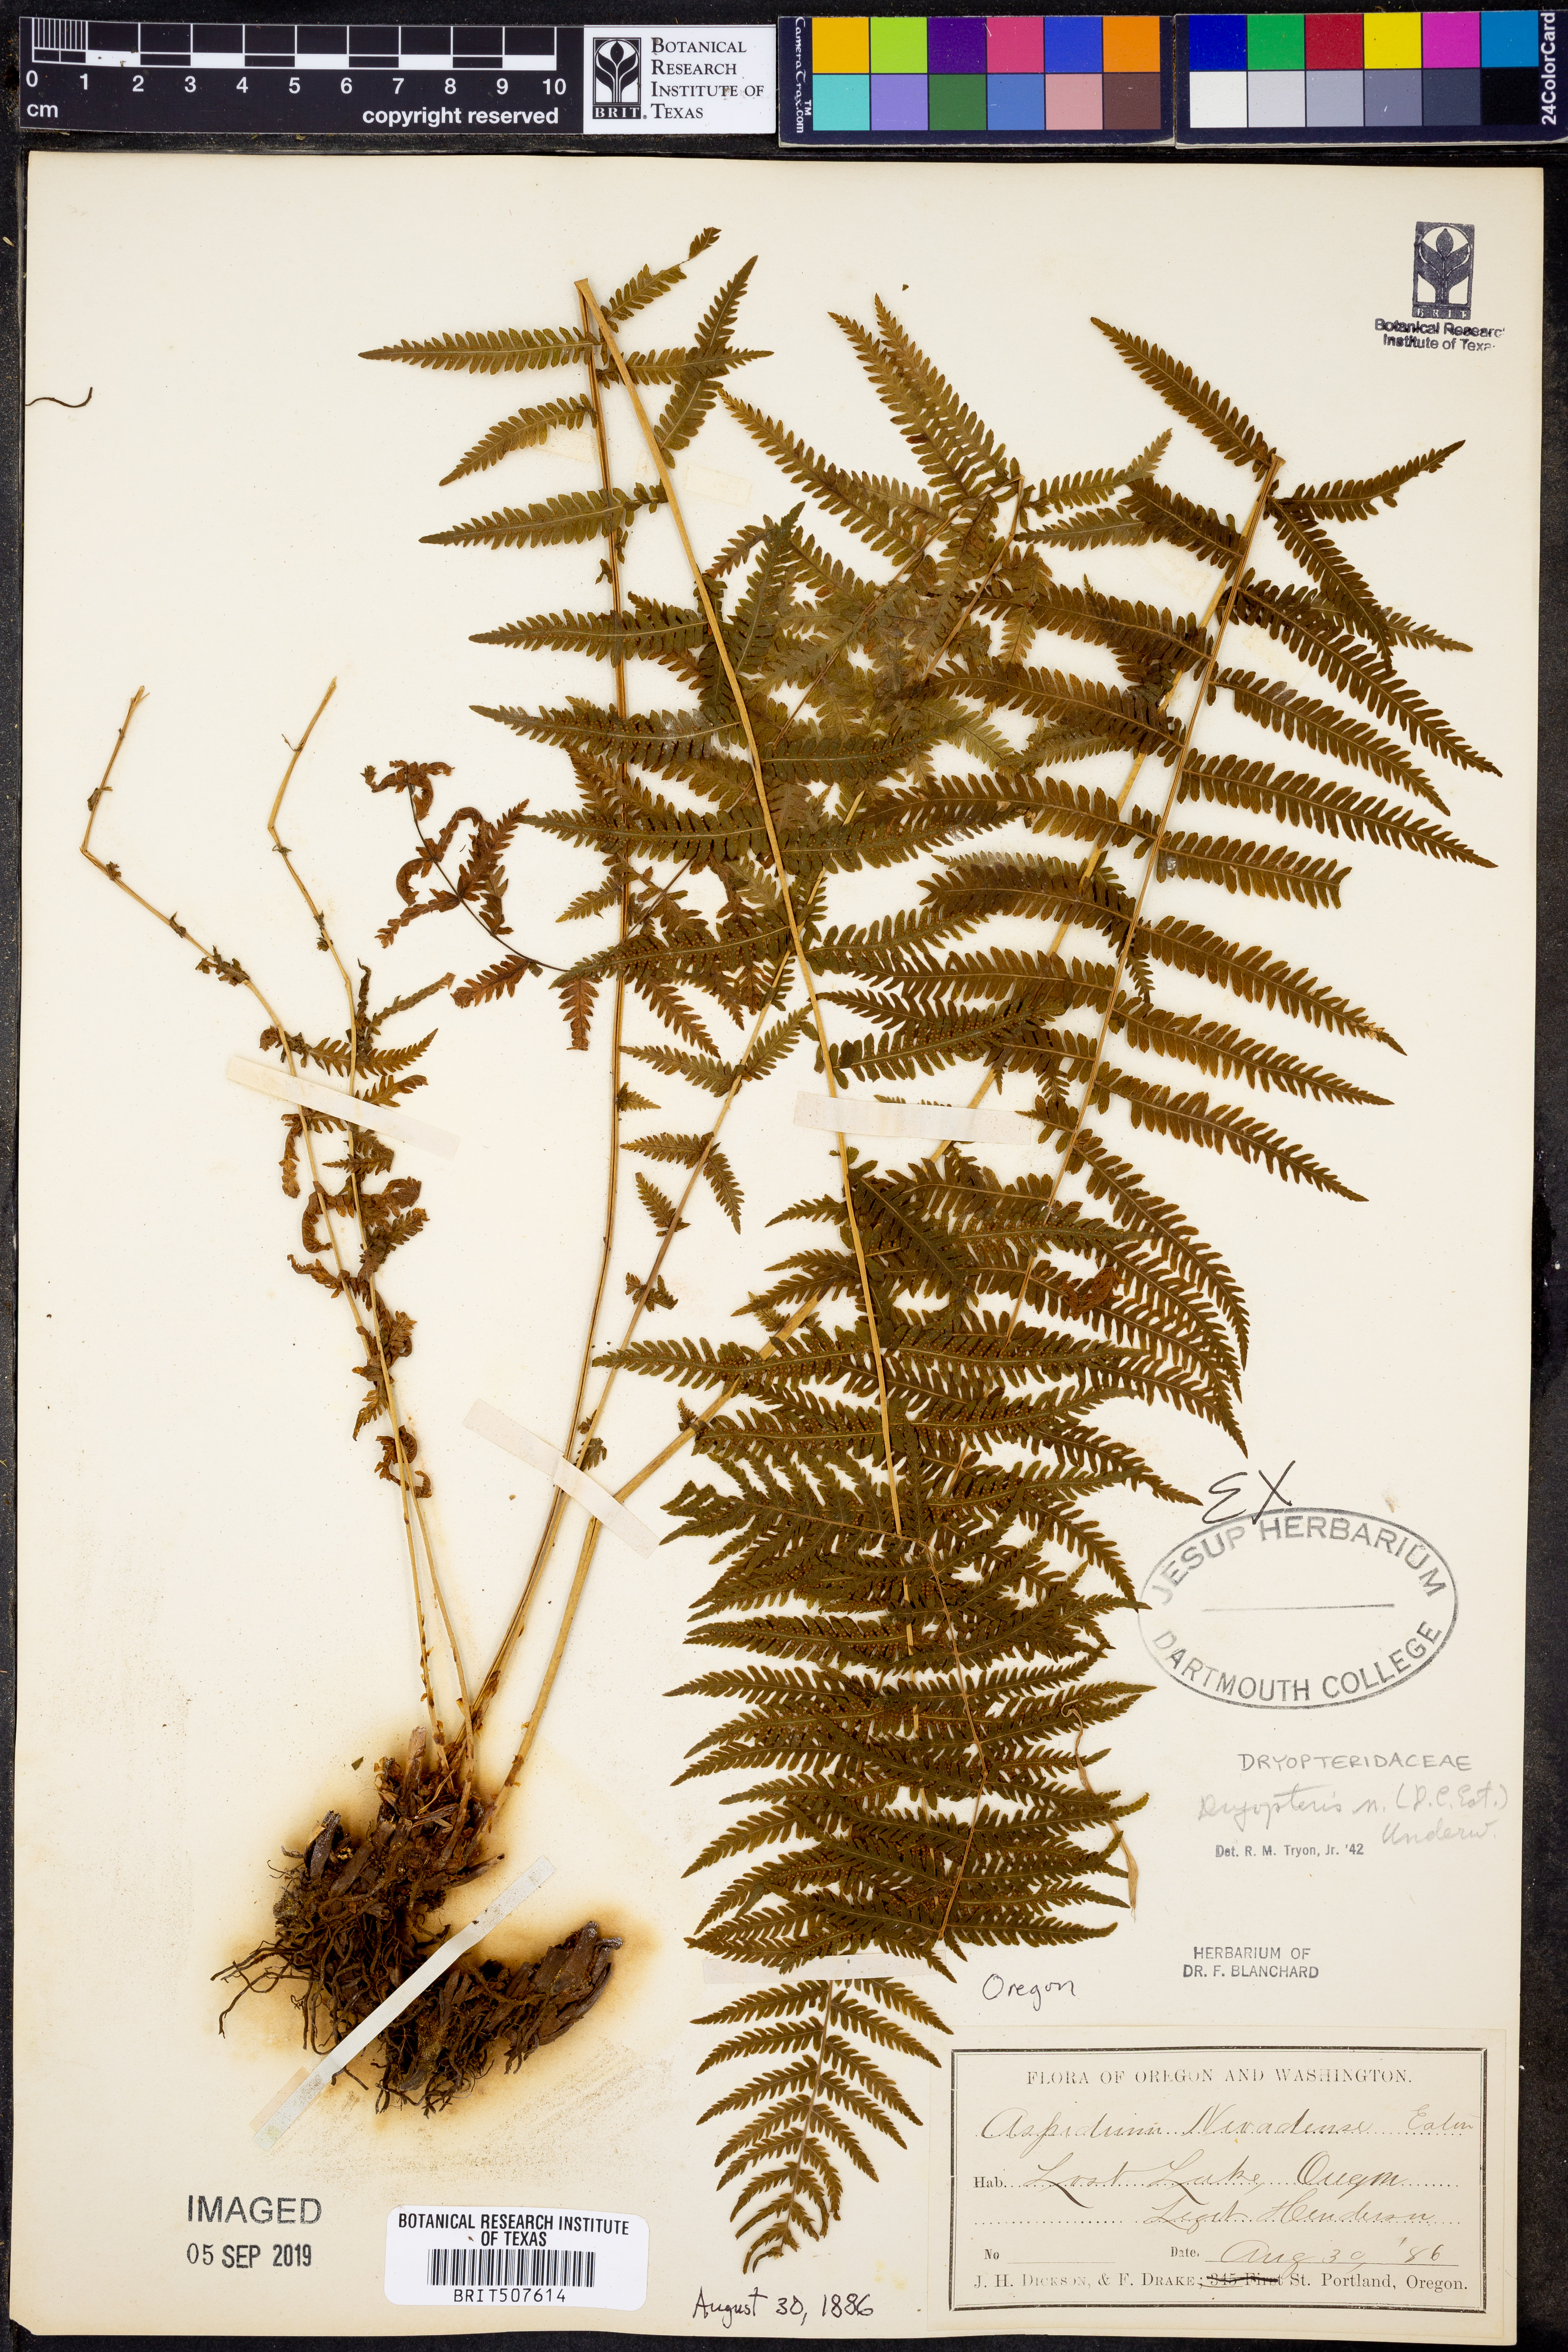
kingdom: Plantae
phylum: Tracheophyta
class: Polypodiopsida
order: Polypodiales
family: Dryopteridaceae
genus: Dryopteris
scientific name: Dryopteris nevadense
